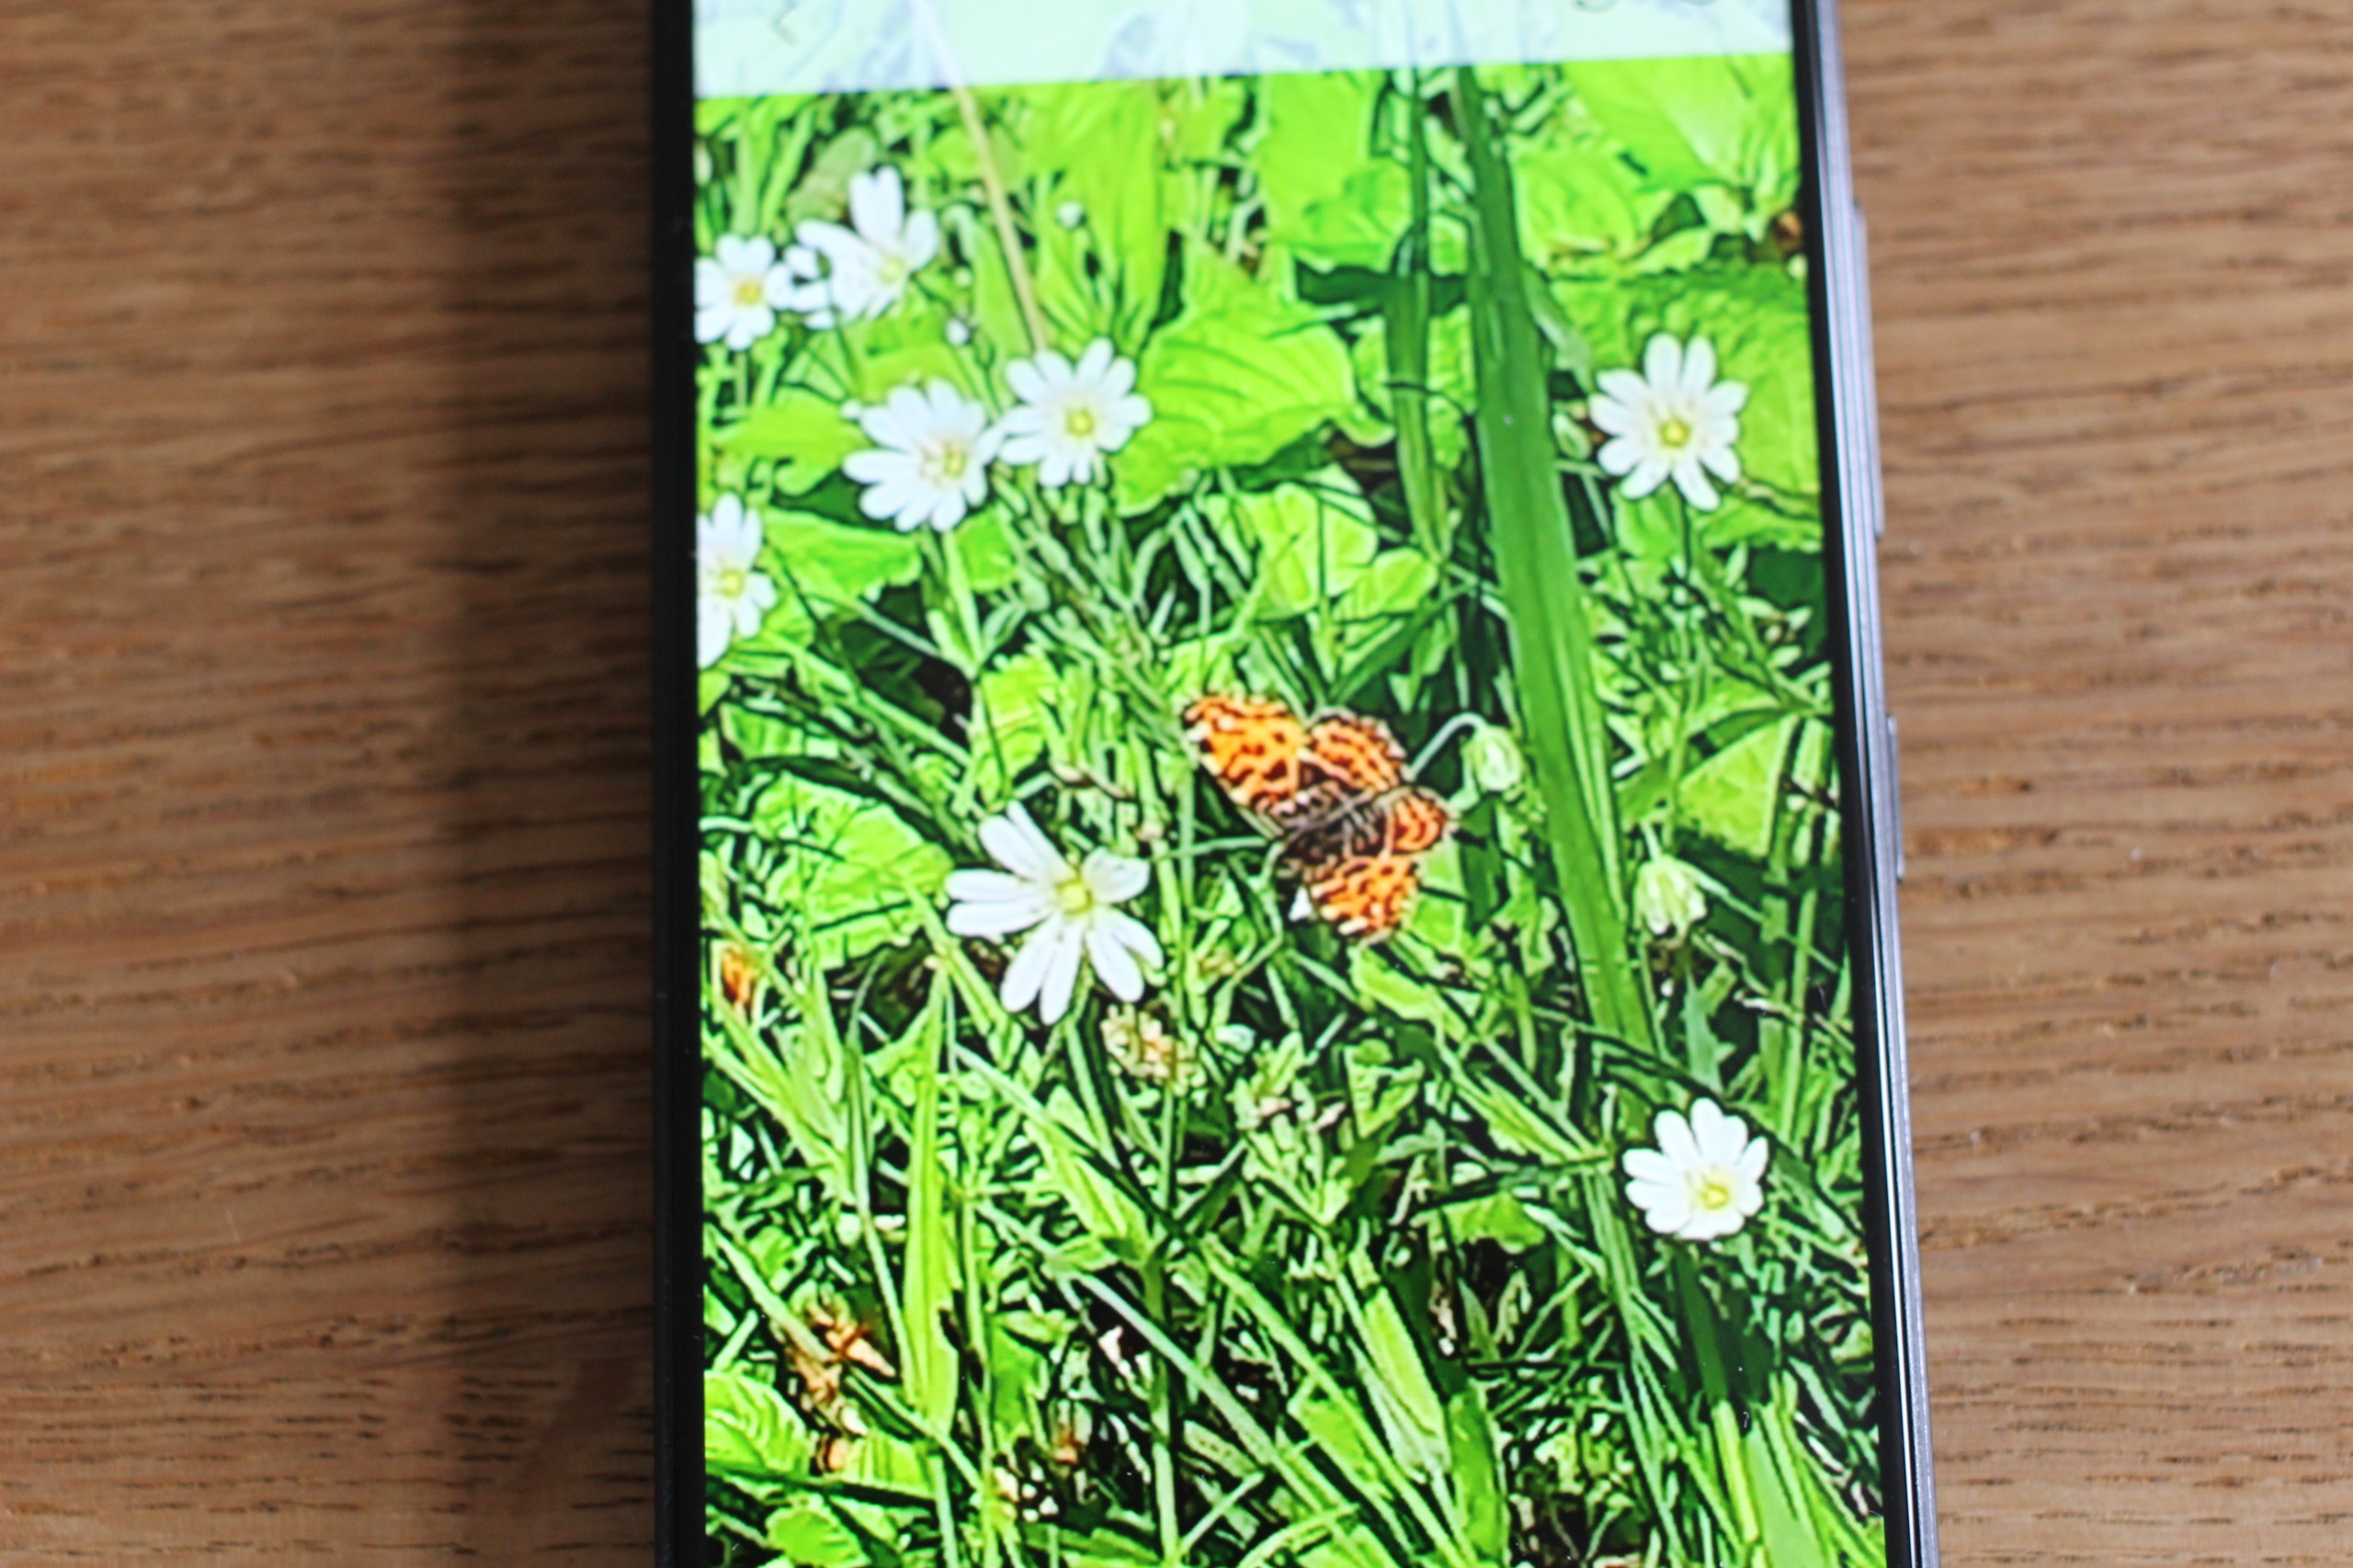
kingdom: Animalia
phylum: Arthropoda
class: Insecta
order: Lepidoptera
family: Nymphalidae
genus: Araschnia
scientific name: Araschnia levana
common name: Nældesommerfugl
